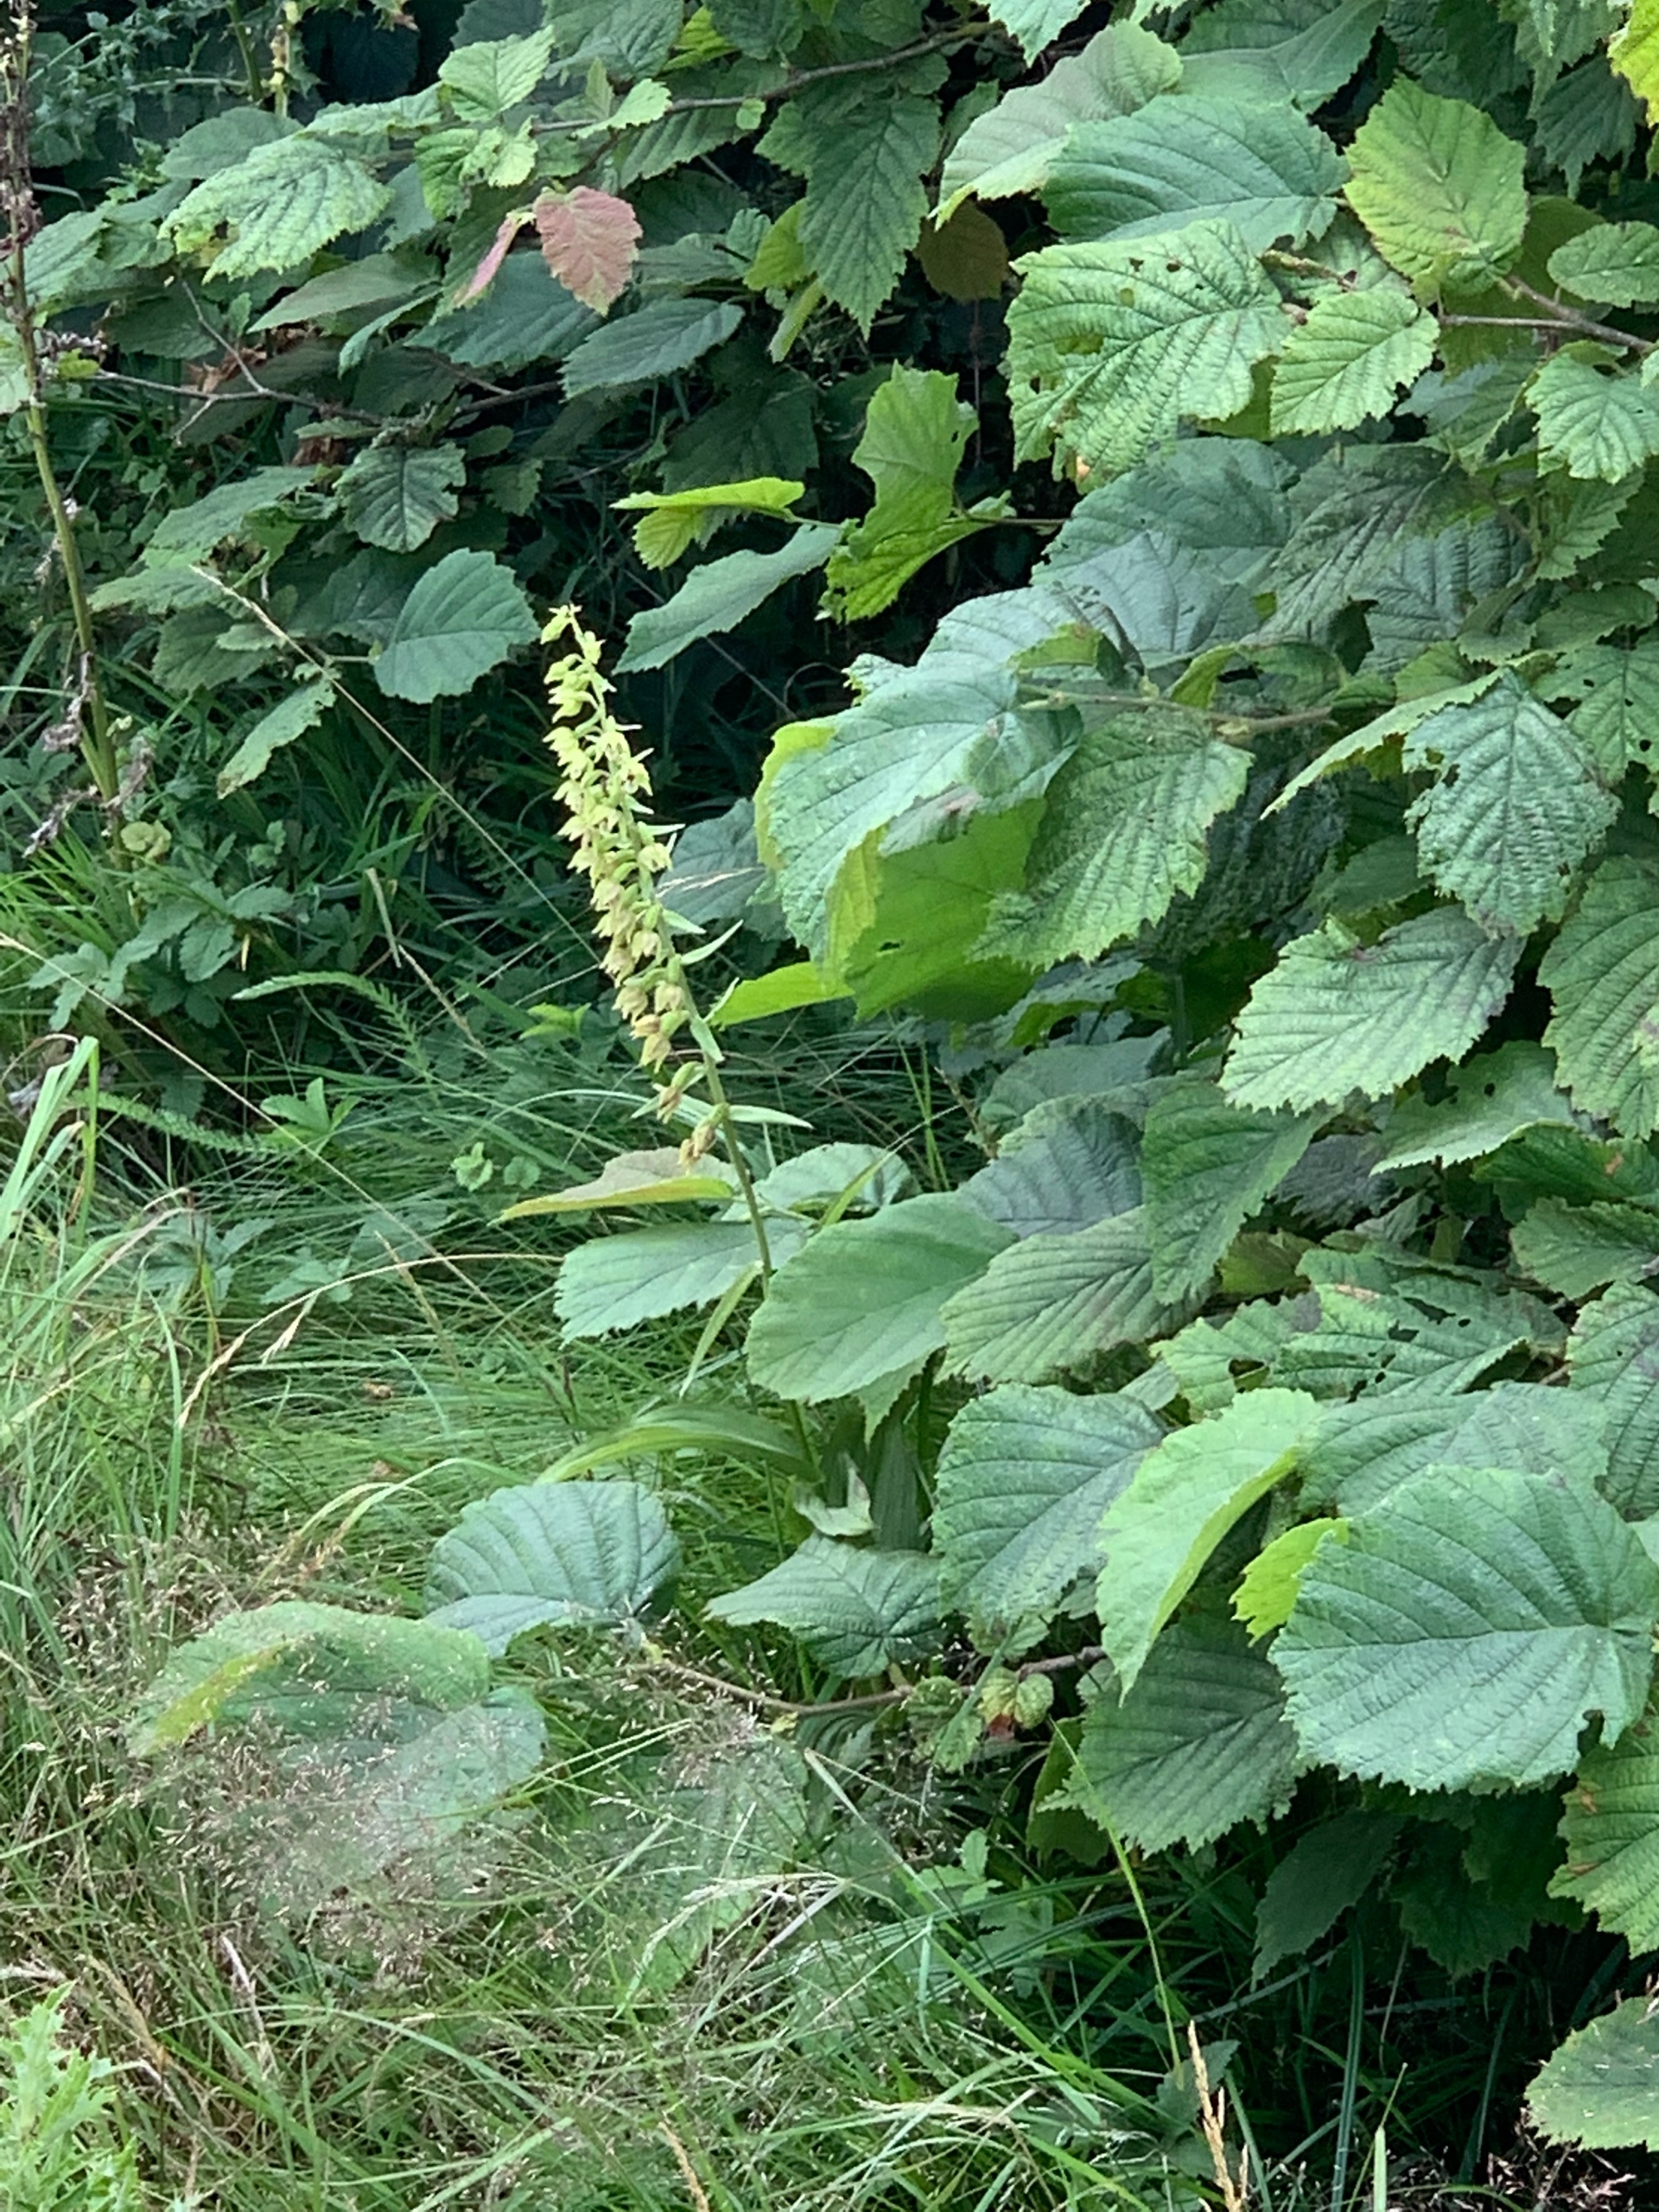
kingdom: Plantae
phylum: Tracheophyta
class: Liliopsida
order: Asparagales
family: Orchidaceae
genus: Epipactis
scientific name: Epipactis helleborine
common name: Skov-hullæbe
